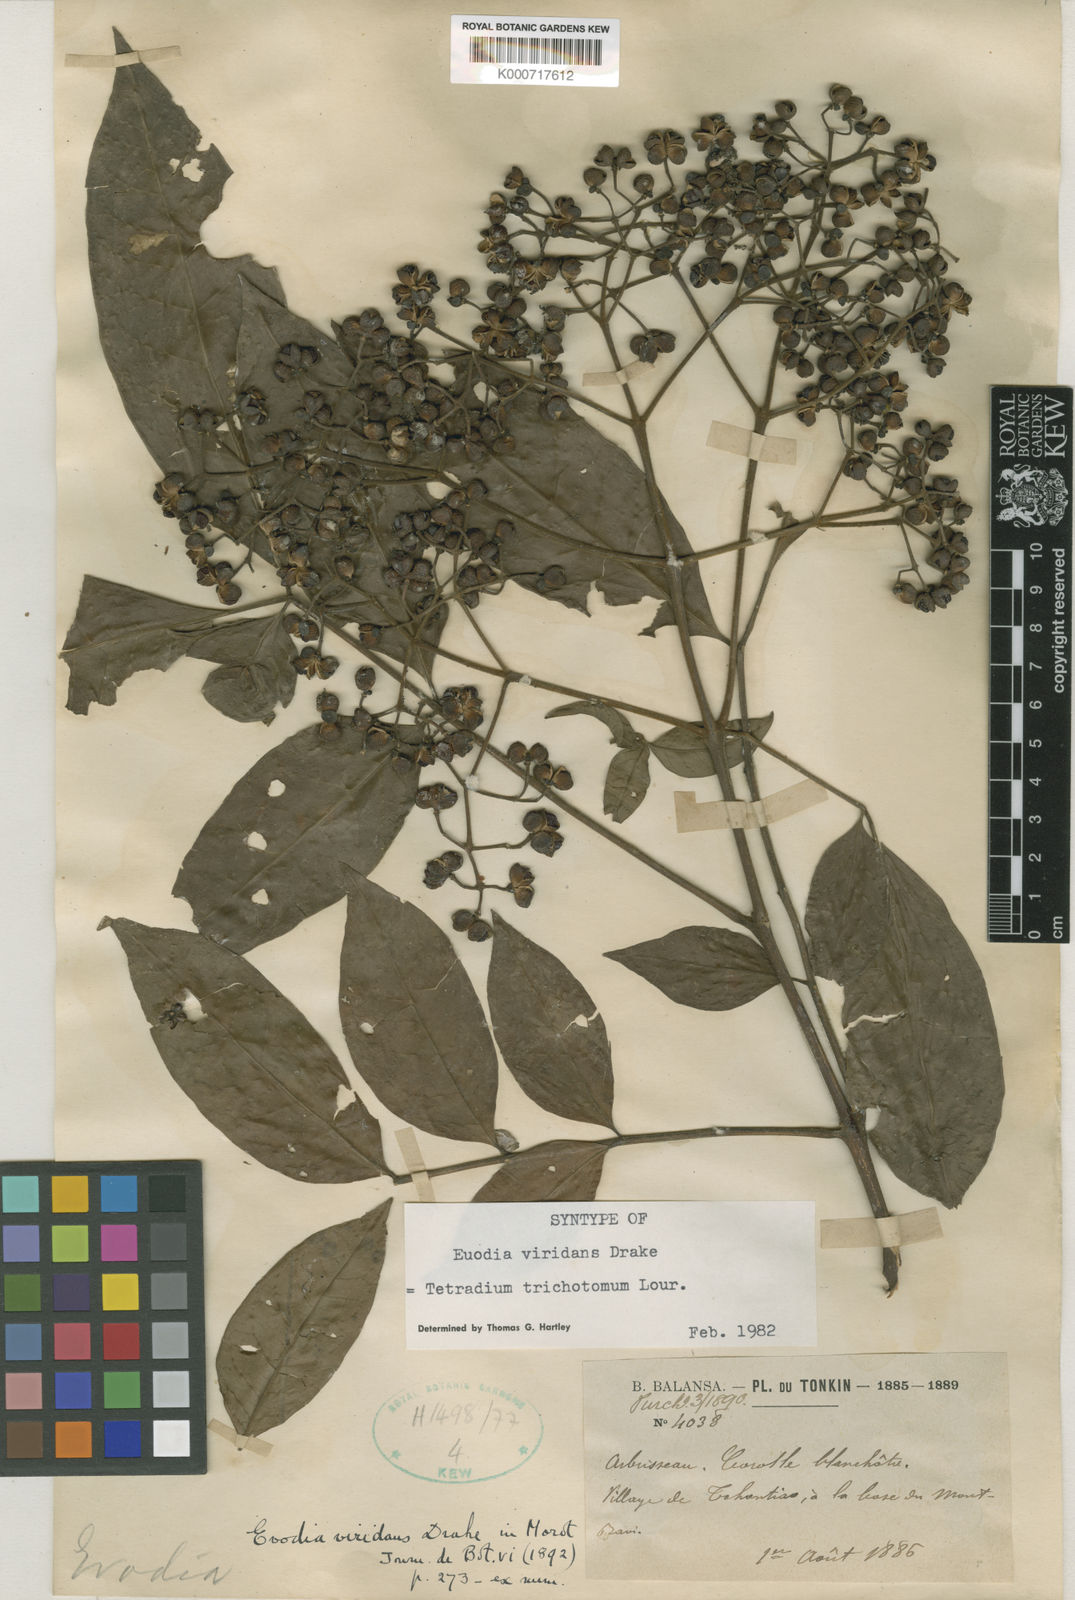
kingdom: Plantae
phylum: Tracheophyta
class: Magnoliopsida
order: Sapindales
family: Rutaceae
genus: Tetradium
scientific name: Tetradium trichotomum
